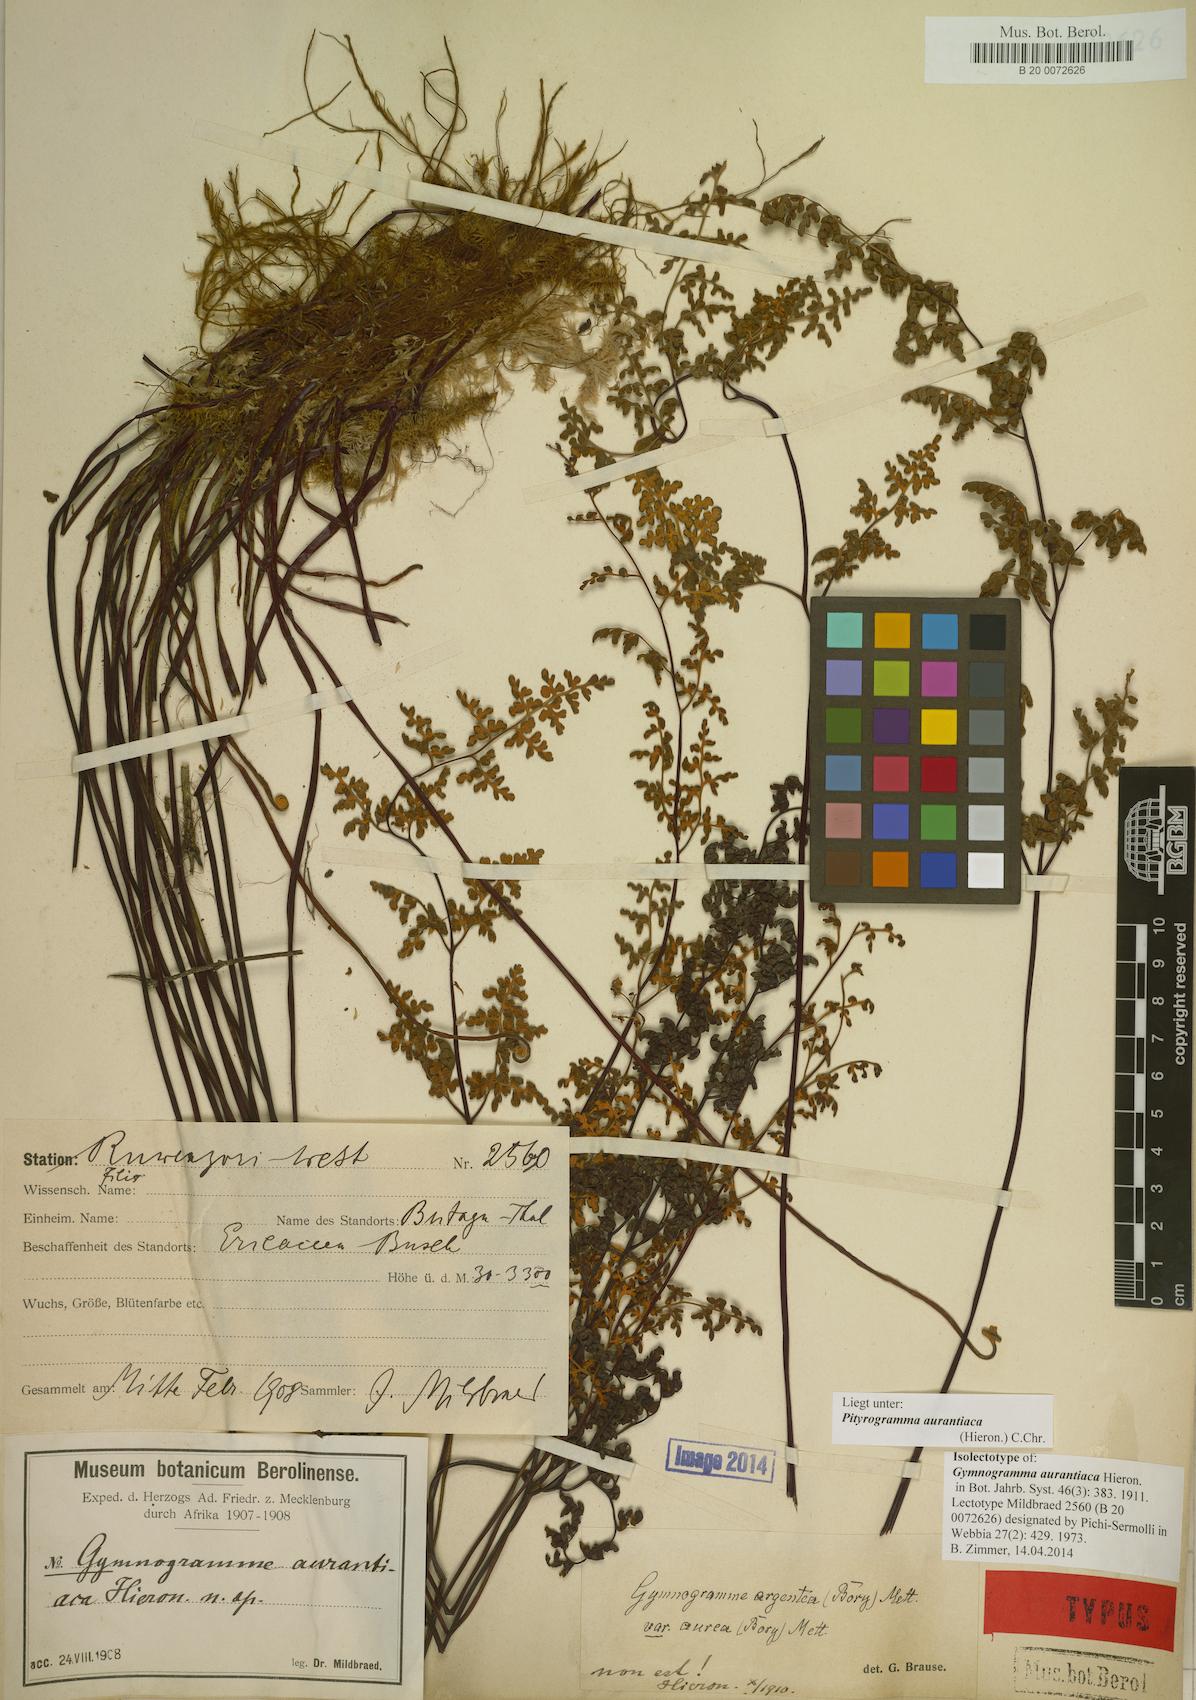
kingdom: Plantae
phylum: Tracheophyta
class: Polypodiopsida
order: Polypodiales
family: Pteridaceae
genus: Pityrogramma
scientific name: Pityrogramma aurantiaca
